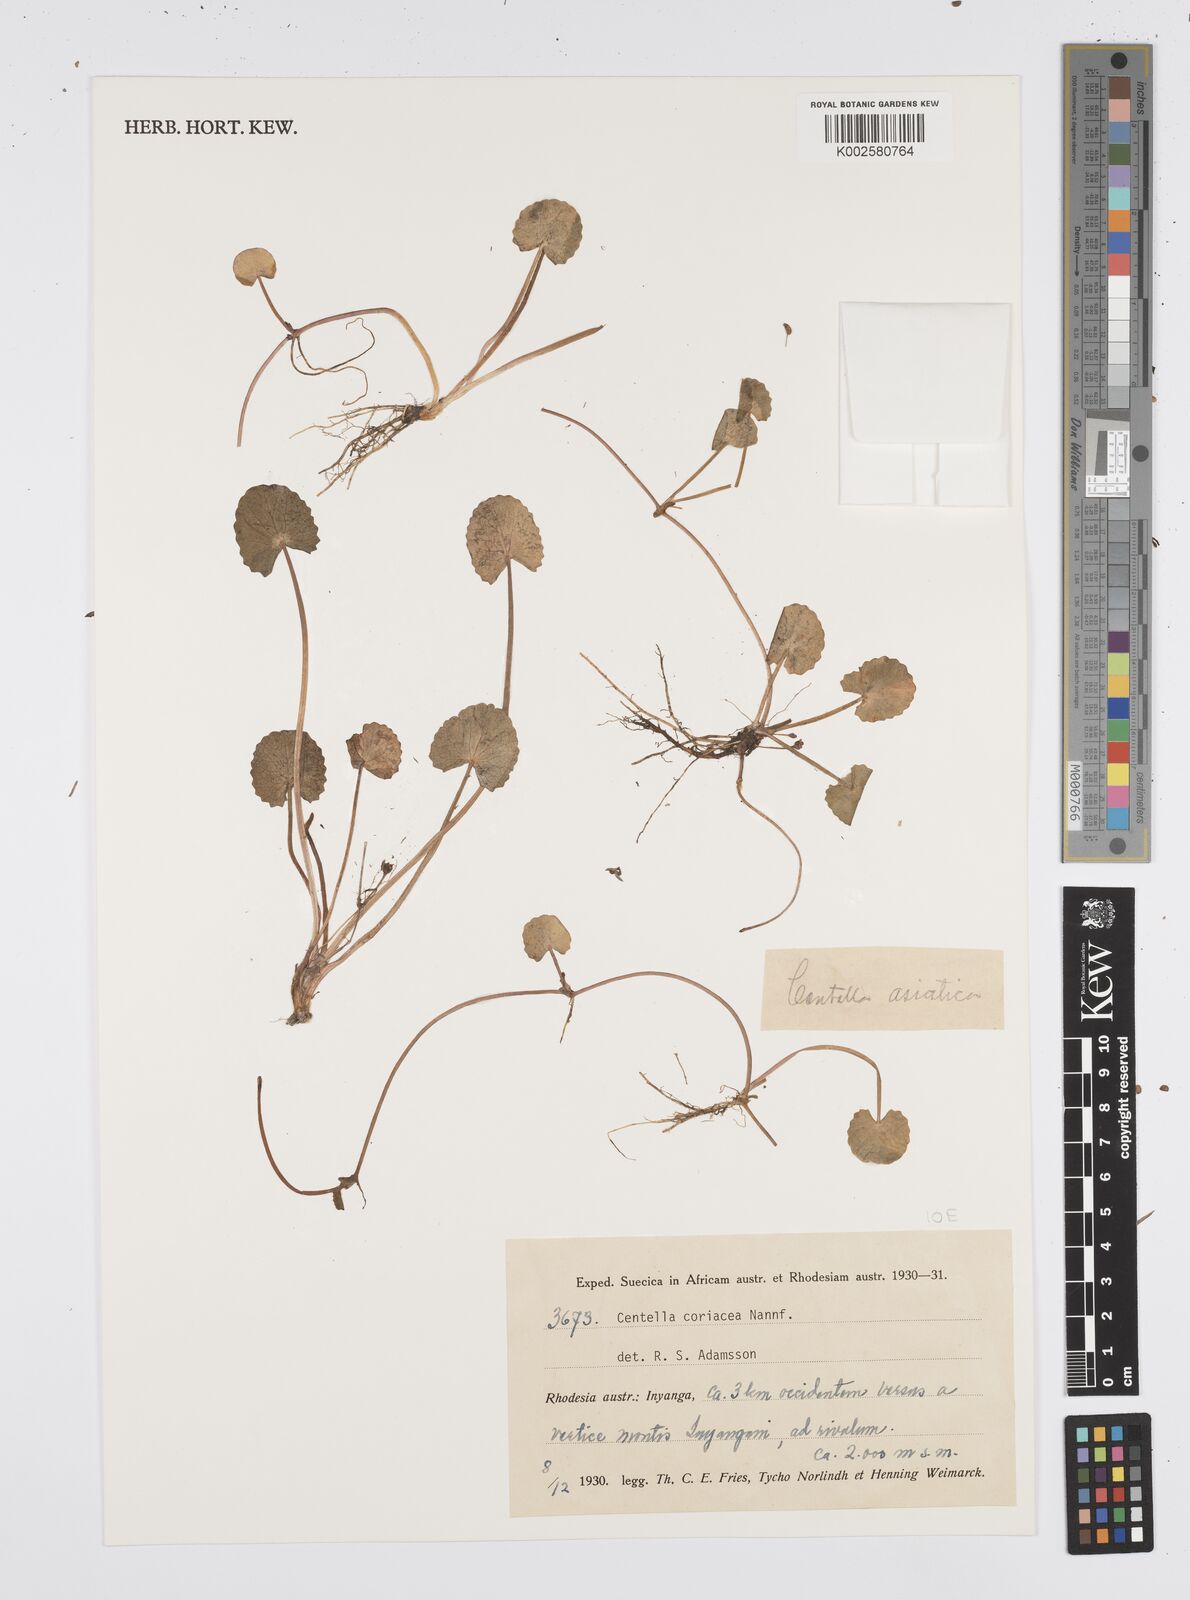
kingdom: Plantae
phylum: Tracheophyta
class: Magnoliopsida
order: Apiales
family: Apiaceae
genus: Centella
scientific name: Centella coriacea
